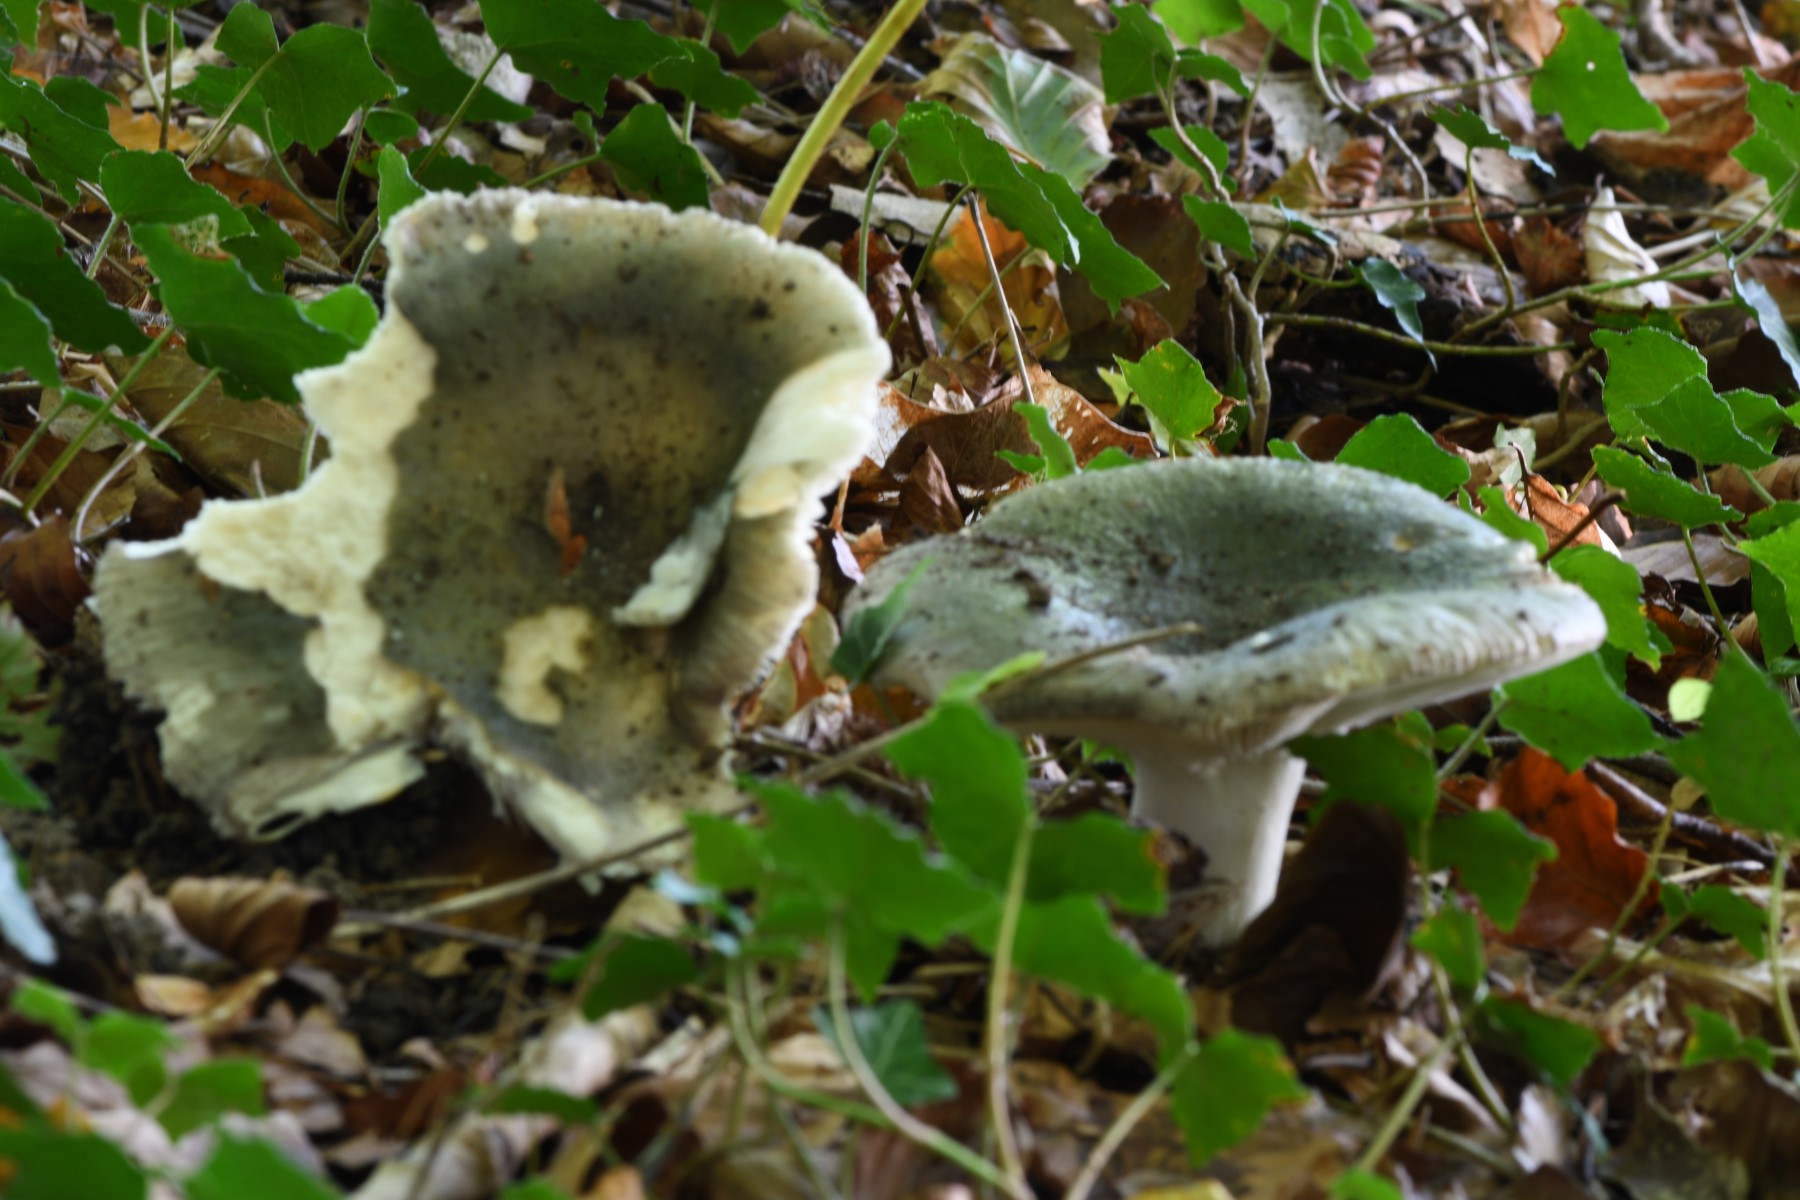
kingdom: Fungi
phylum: Basidiomycota
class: Agaricomycetes
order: Russulales
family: Russulaceae
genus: Russula
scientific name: Russula cyanoxantha
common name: broget skørhat
